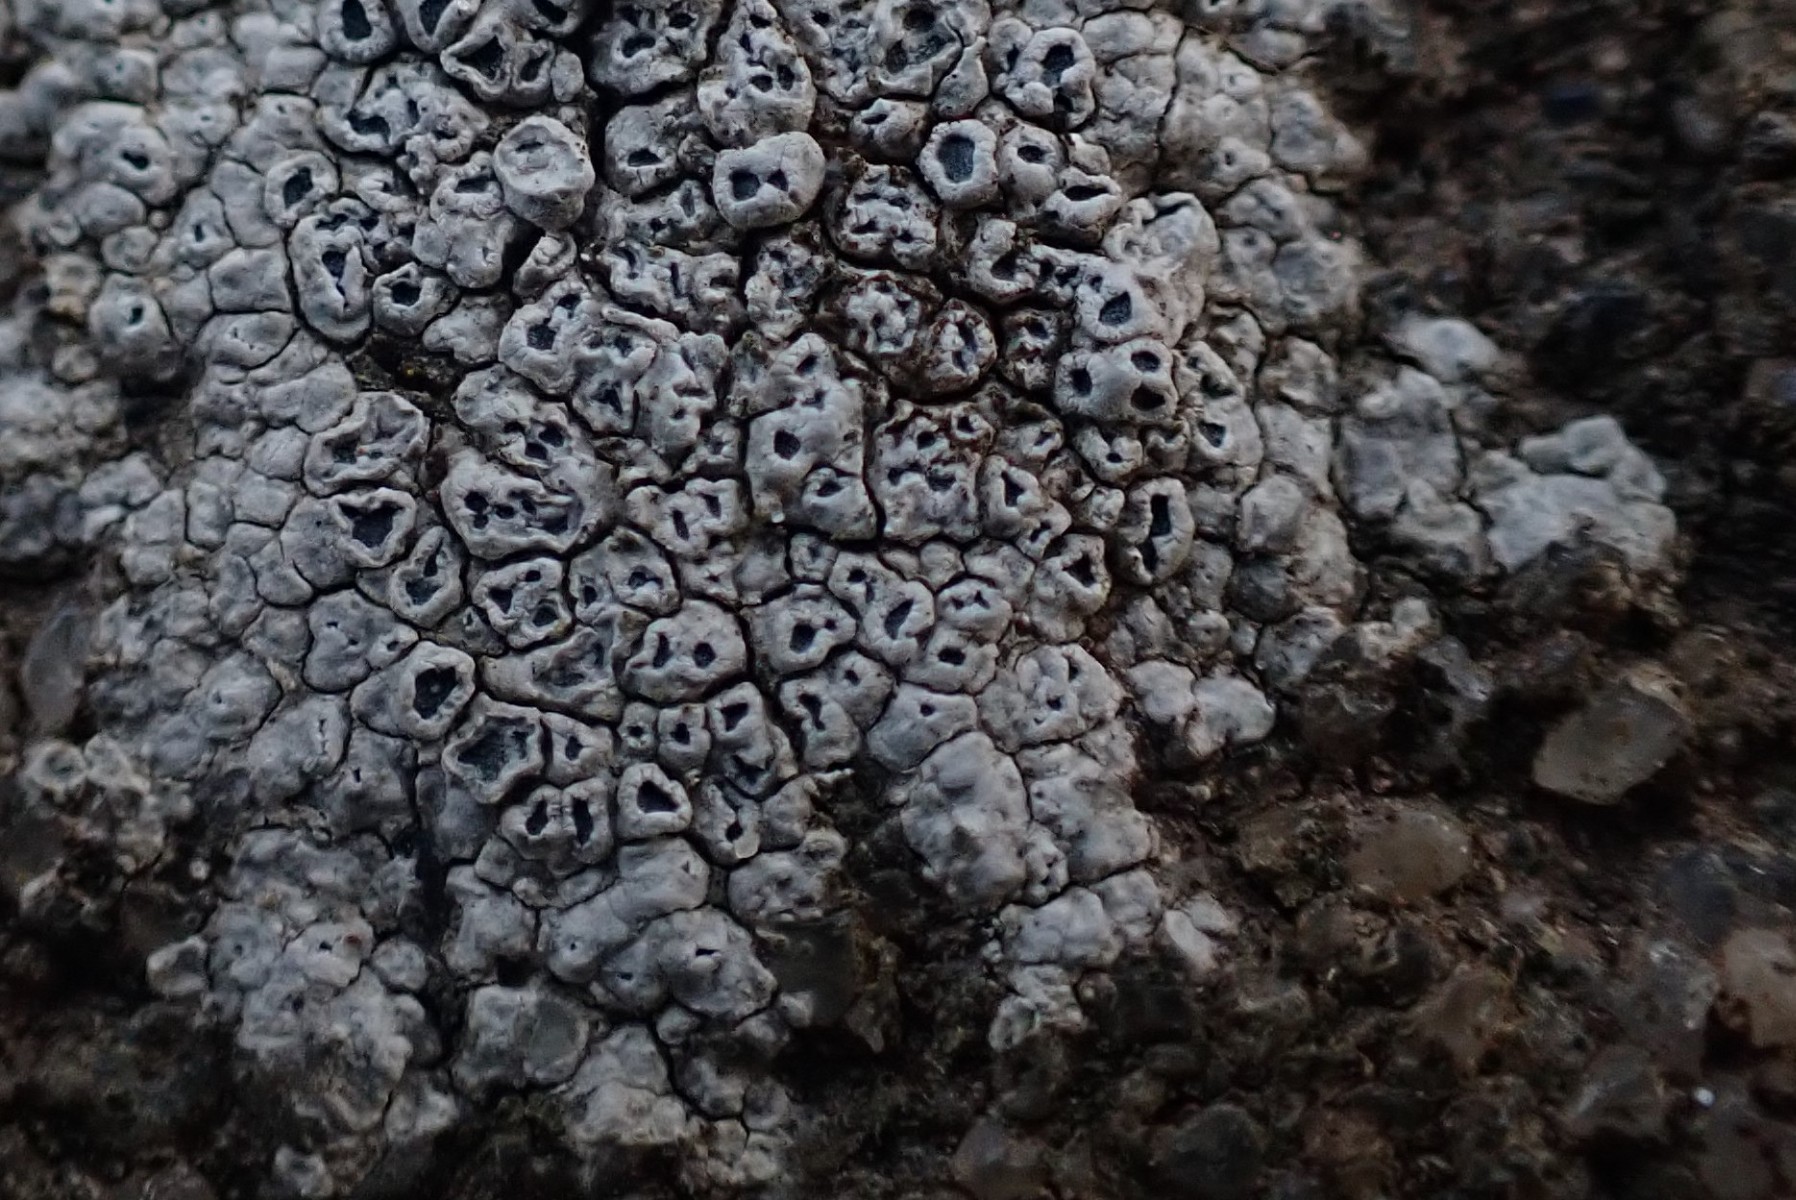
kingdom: Fungi
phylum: Ascomycota
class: Lecanoromycetes
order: Pertusariales
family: Megasporaceae
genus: Circinaria
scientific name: Circinaria contorta
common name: indviklet hulskivelav
